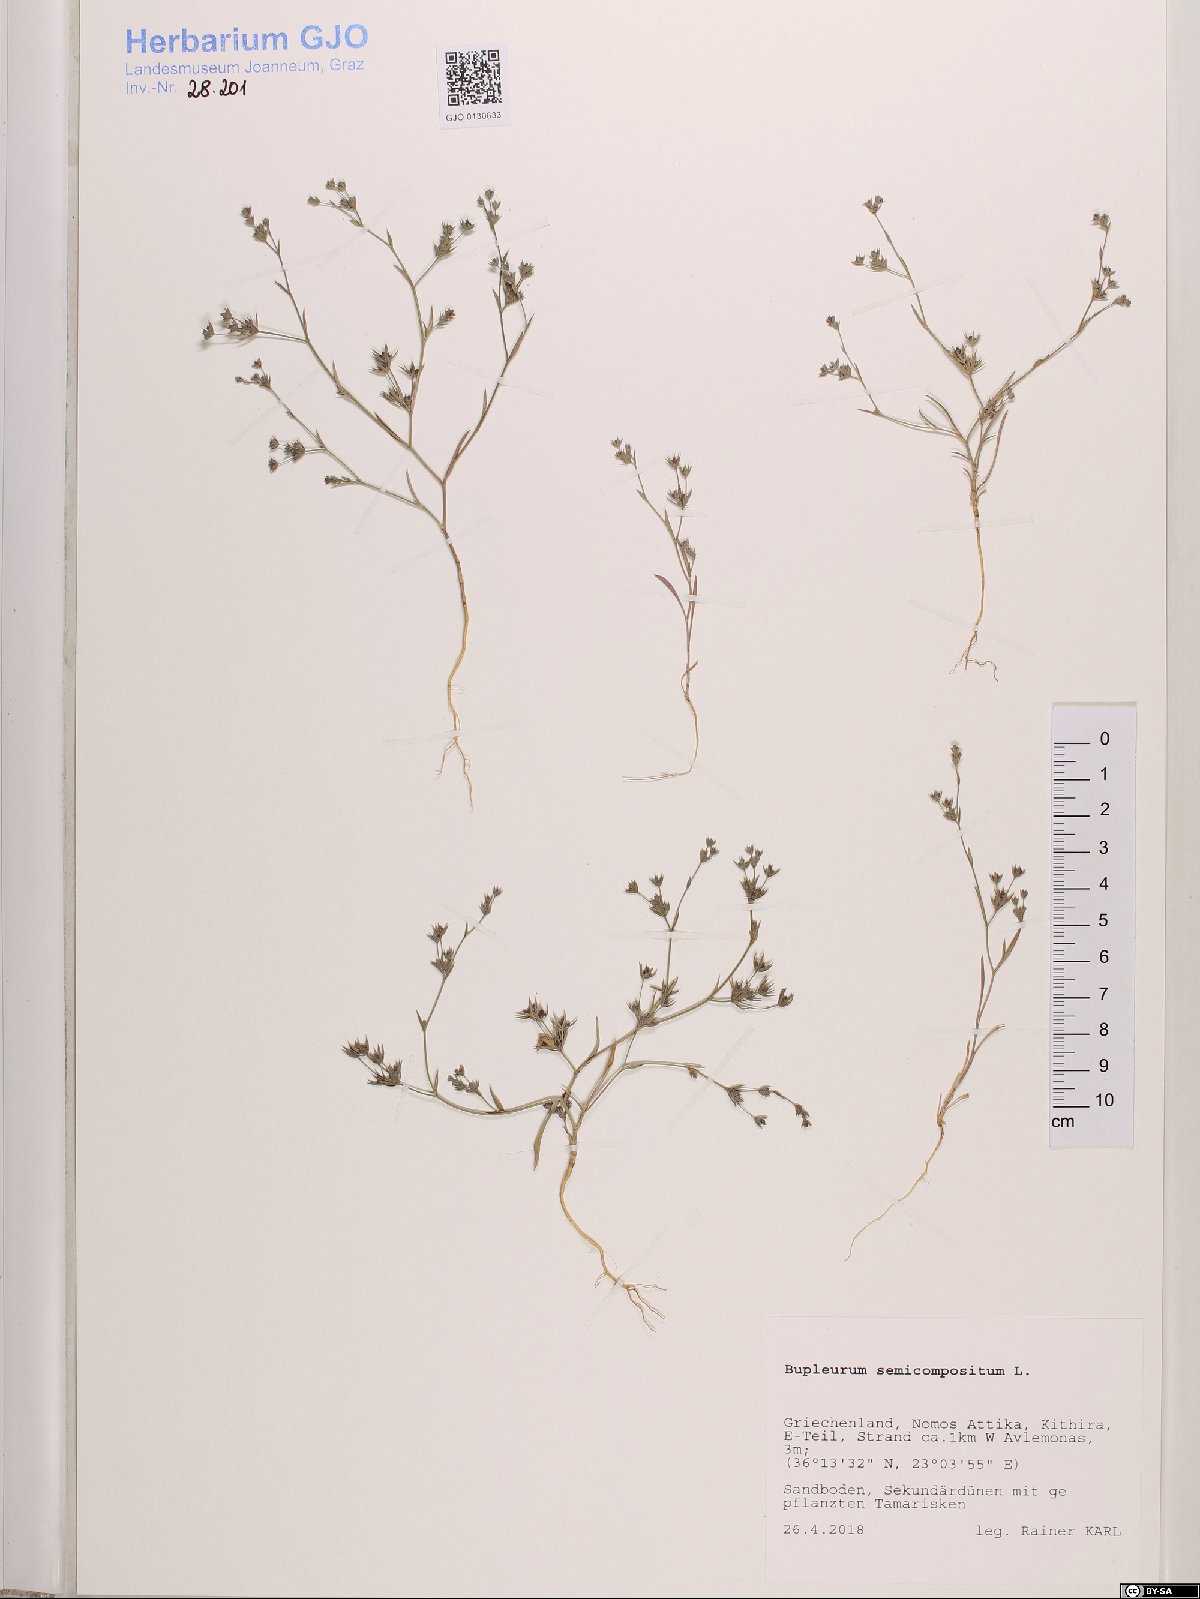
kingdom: Plantae
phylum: Tracheophyta
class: Magnoliopsida
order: Apiales
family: Apiaceae
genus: Bupleurum
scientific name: Bupleurum semicompositum
